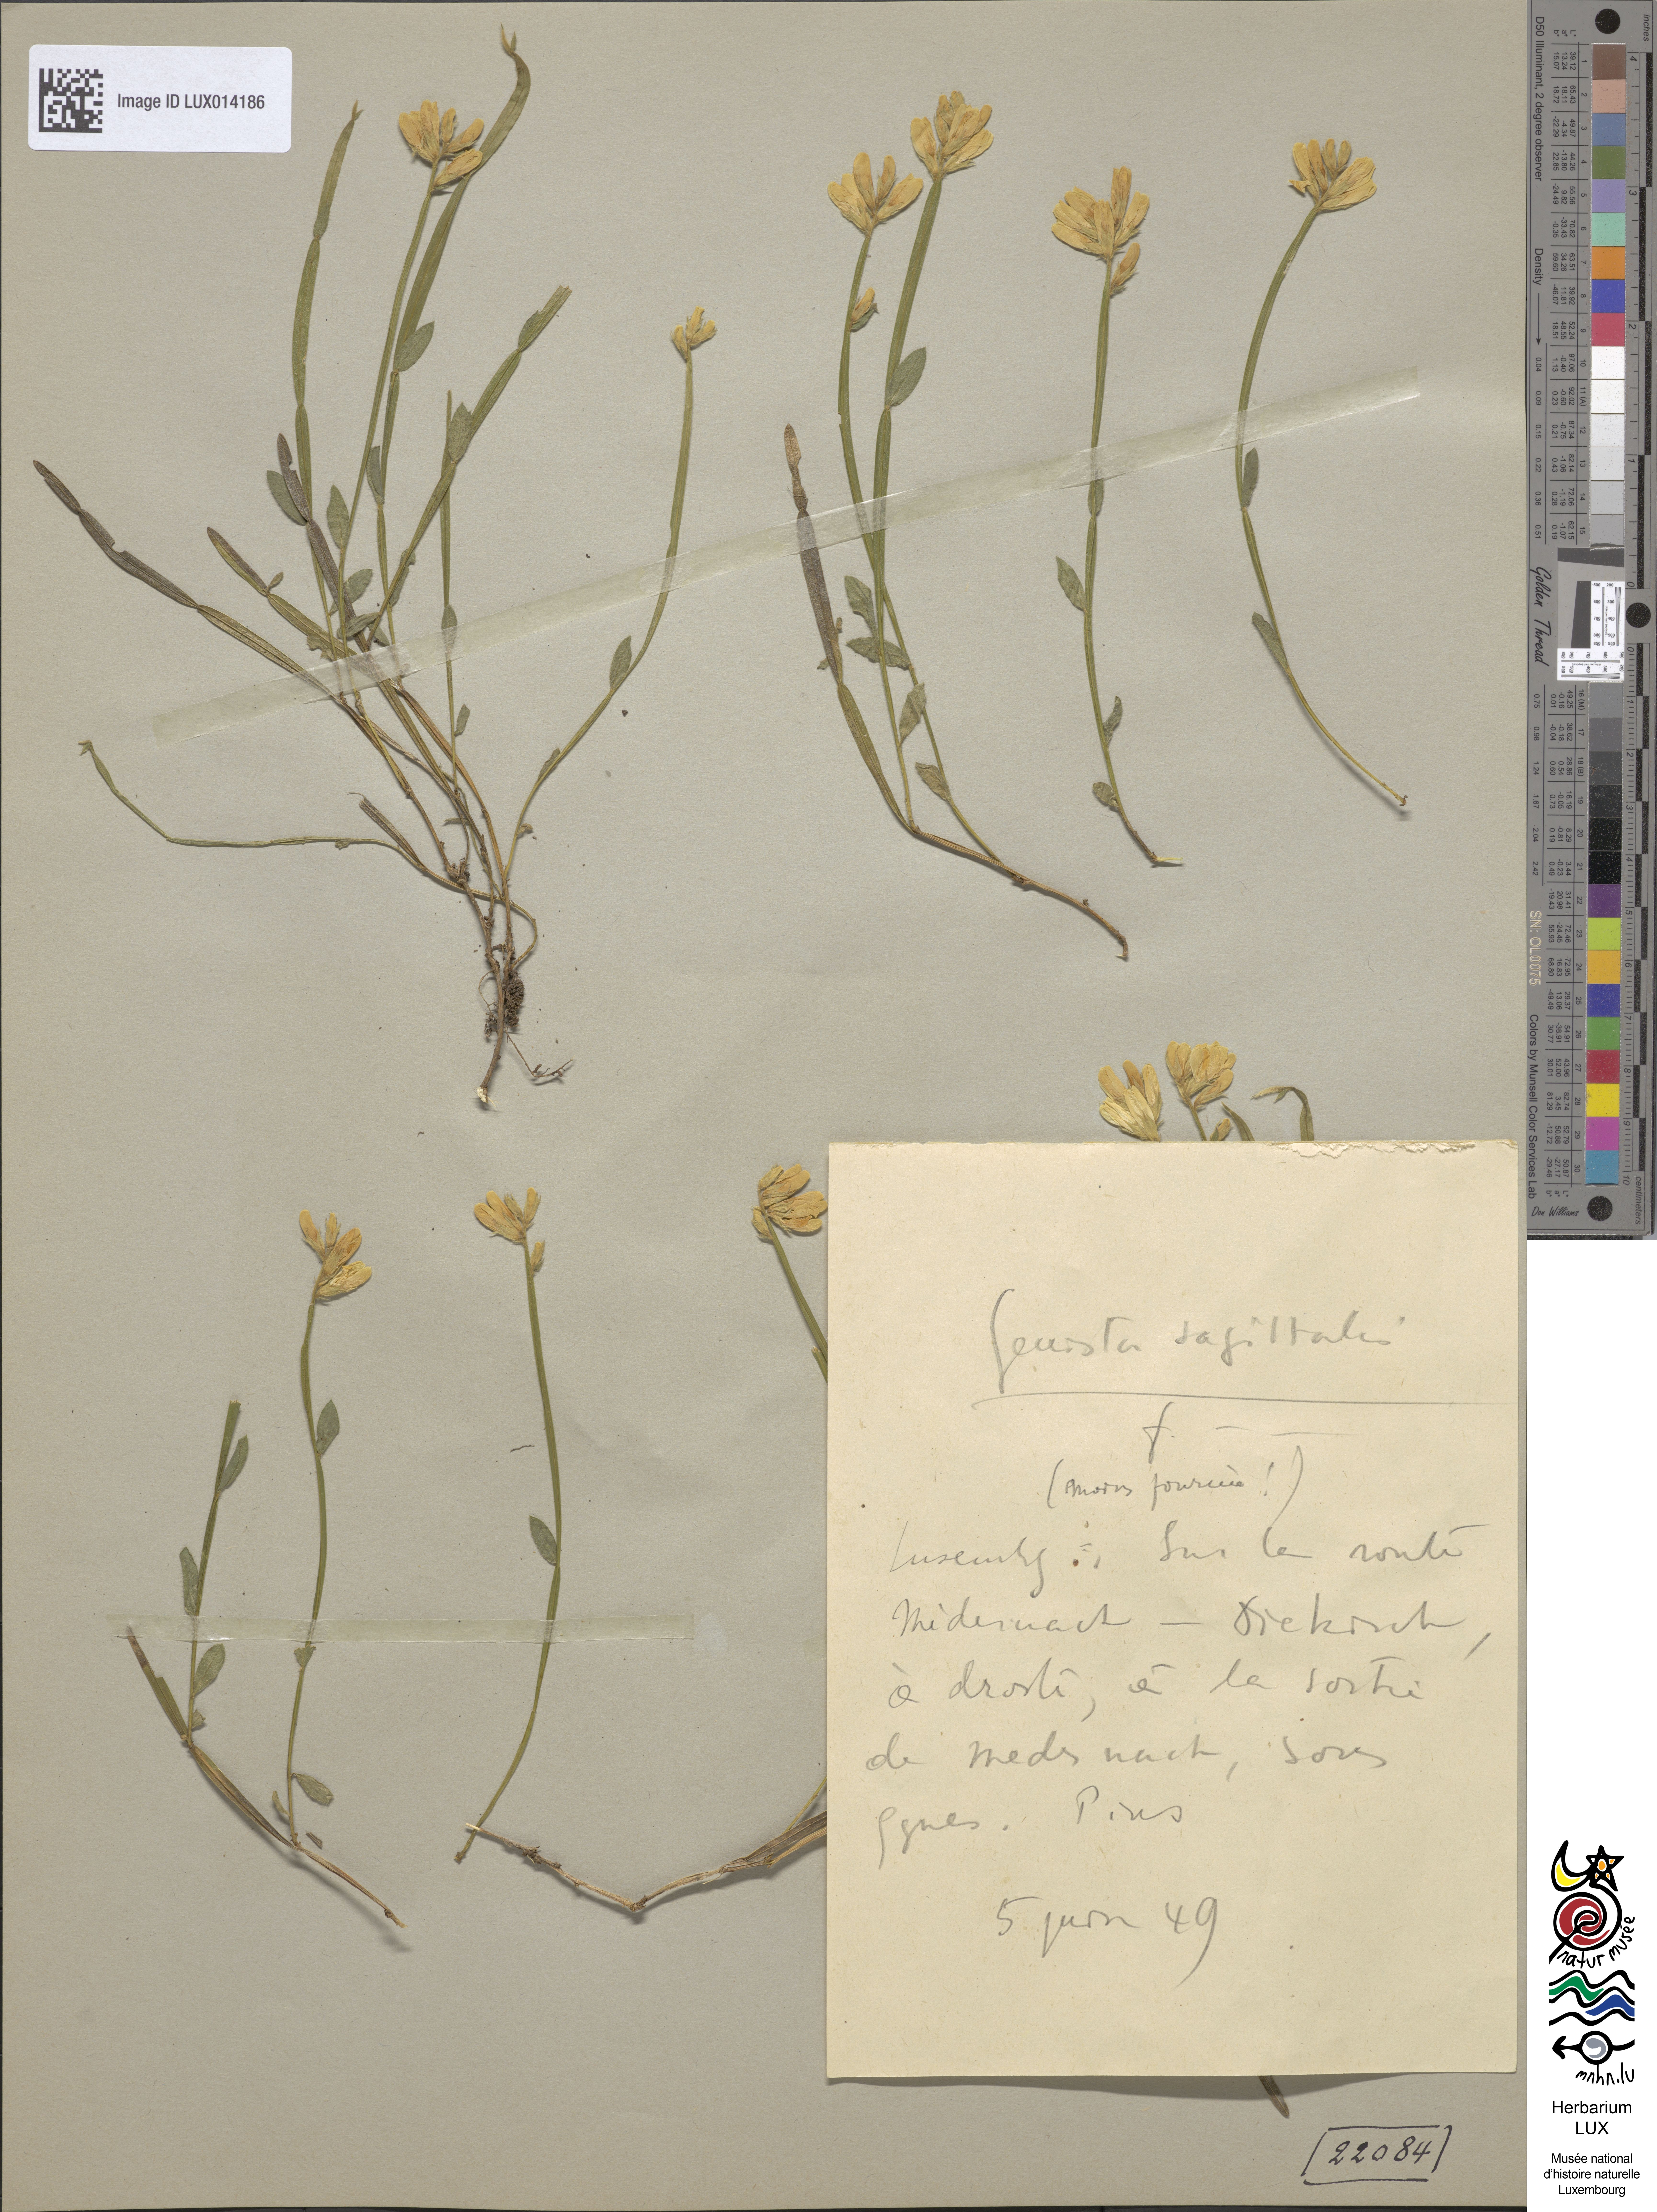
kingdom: Plantae
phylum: Tracheophyta
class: Magnoliopsida
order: Fabales
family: Fabaceae
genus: Genista
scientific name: Genista sagittalis
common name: Winged greenweed
